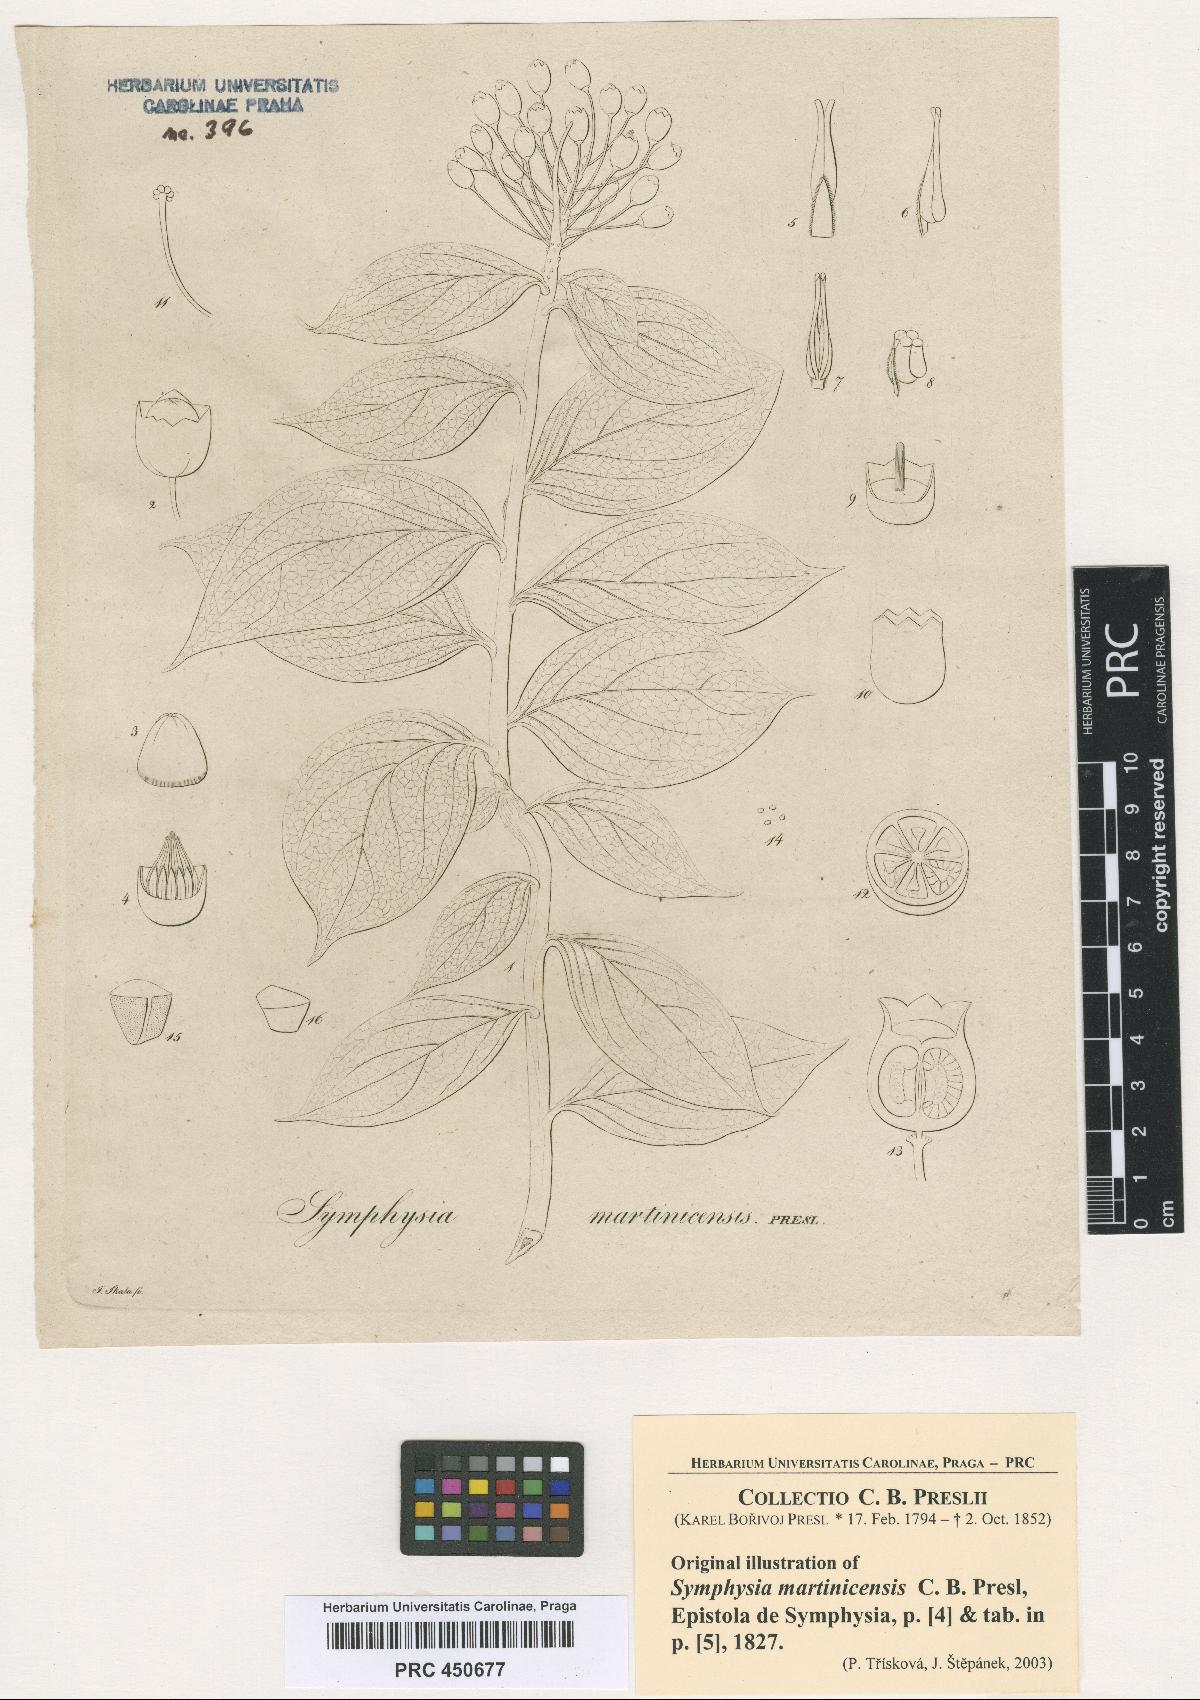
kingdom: Plantae
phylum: Tracheophyta
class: Magnoliopsida
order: Ericales
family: Ericaceae
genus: Symphysia
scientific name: Symphysia racemosa
